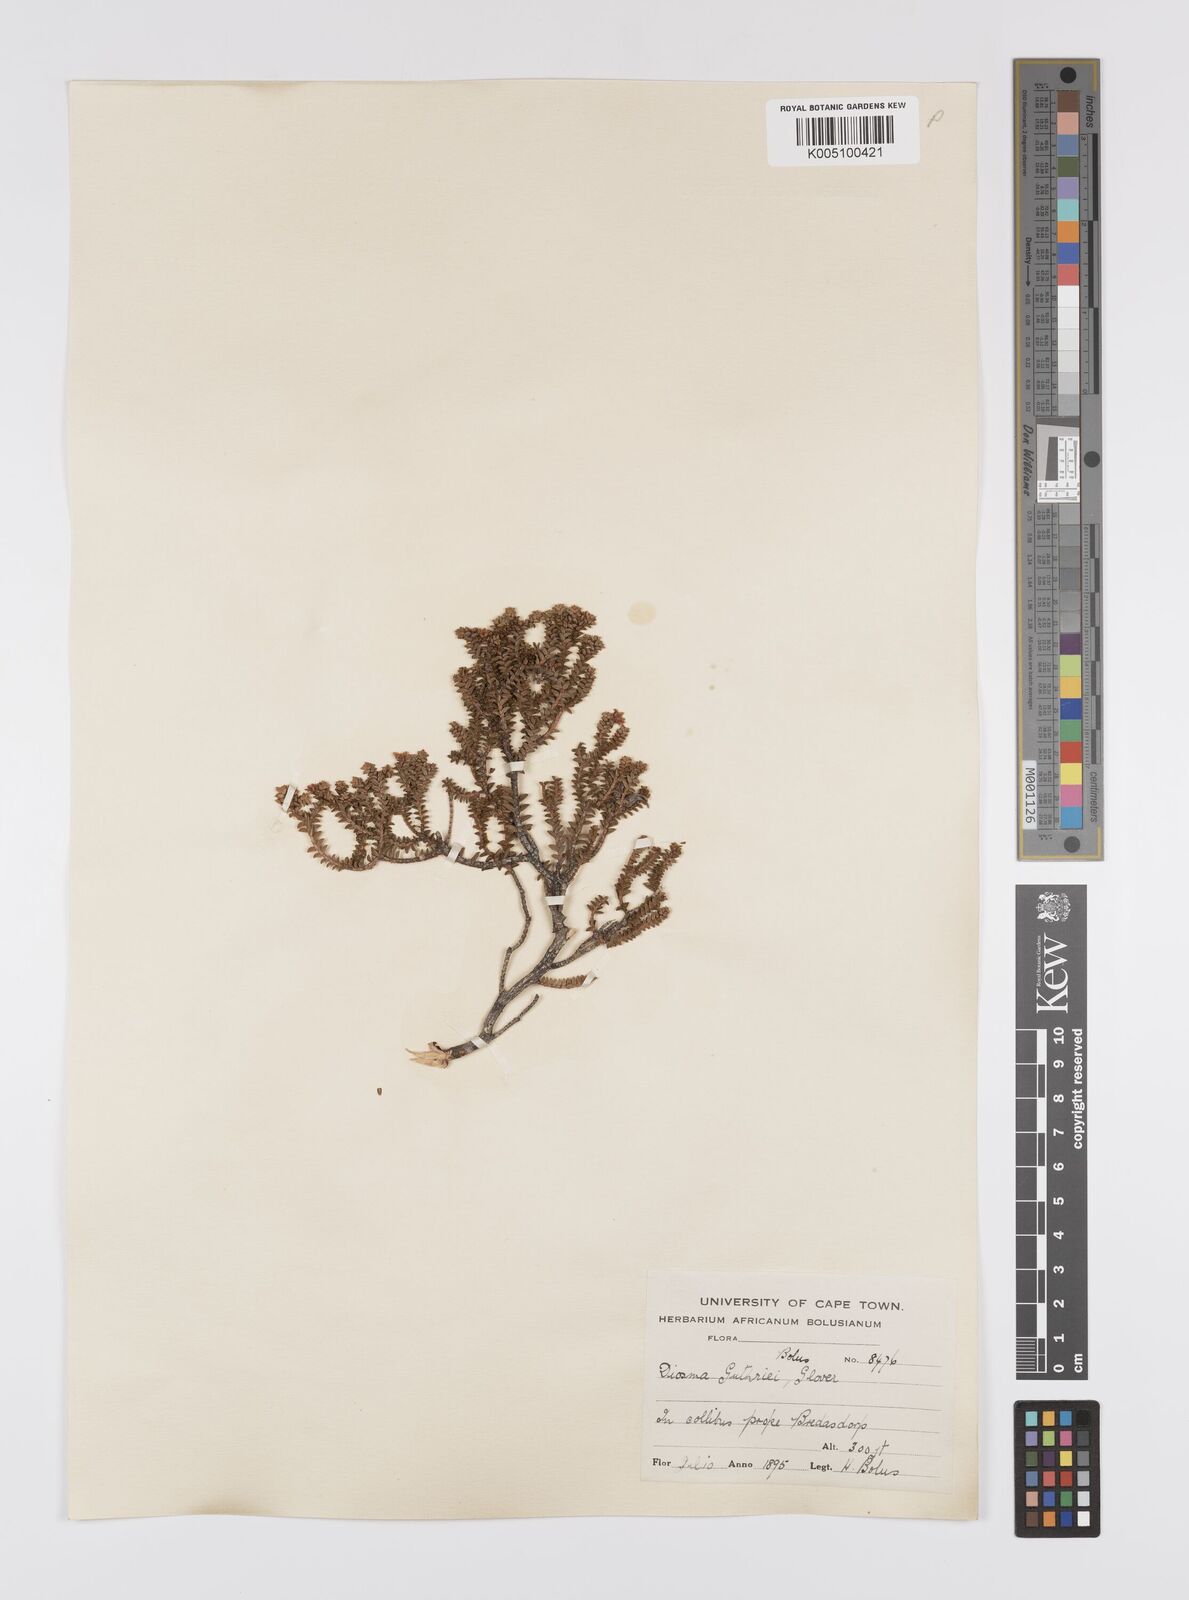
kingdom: Plantae
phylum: Tracheophyta
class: Magnoliopsida
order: Sapindales
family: Rutaceae
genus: Diosma
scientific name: Diosma guthriei
